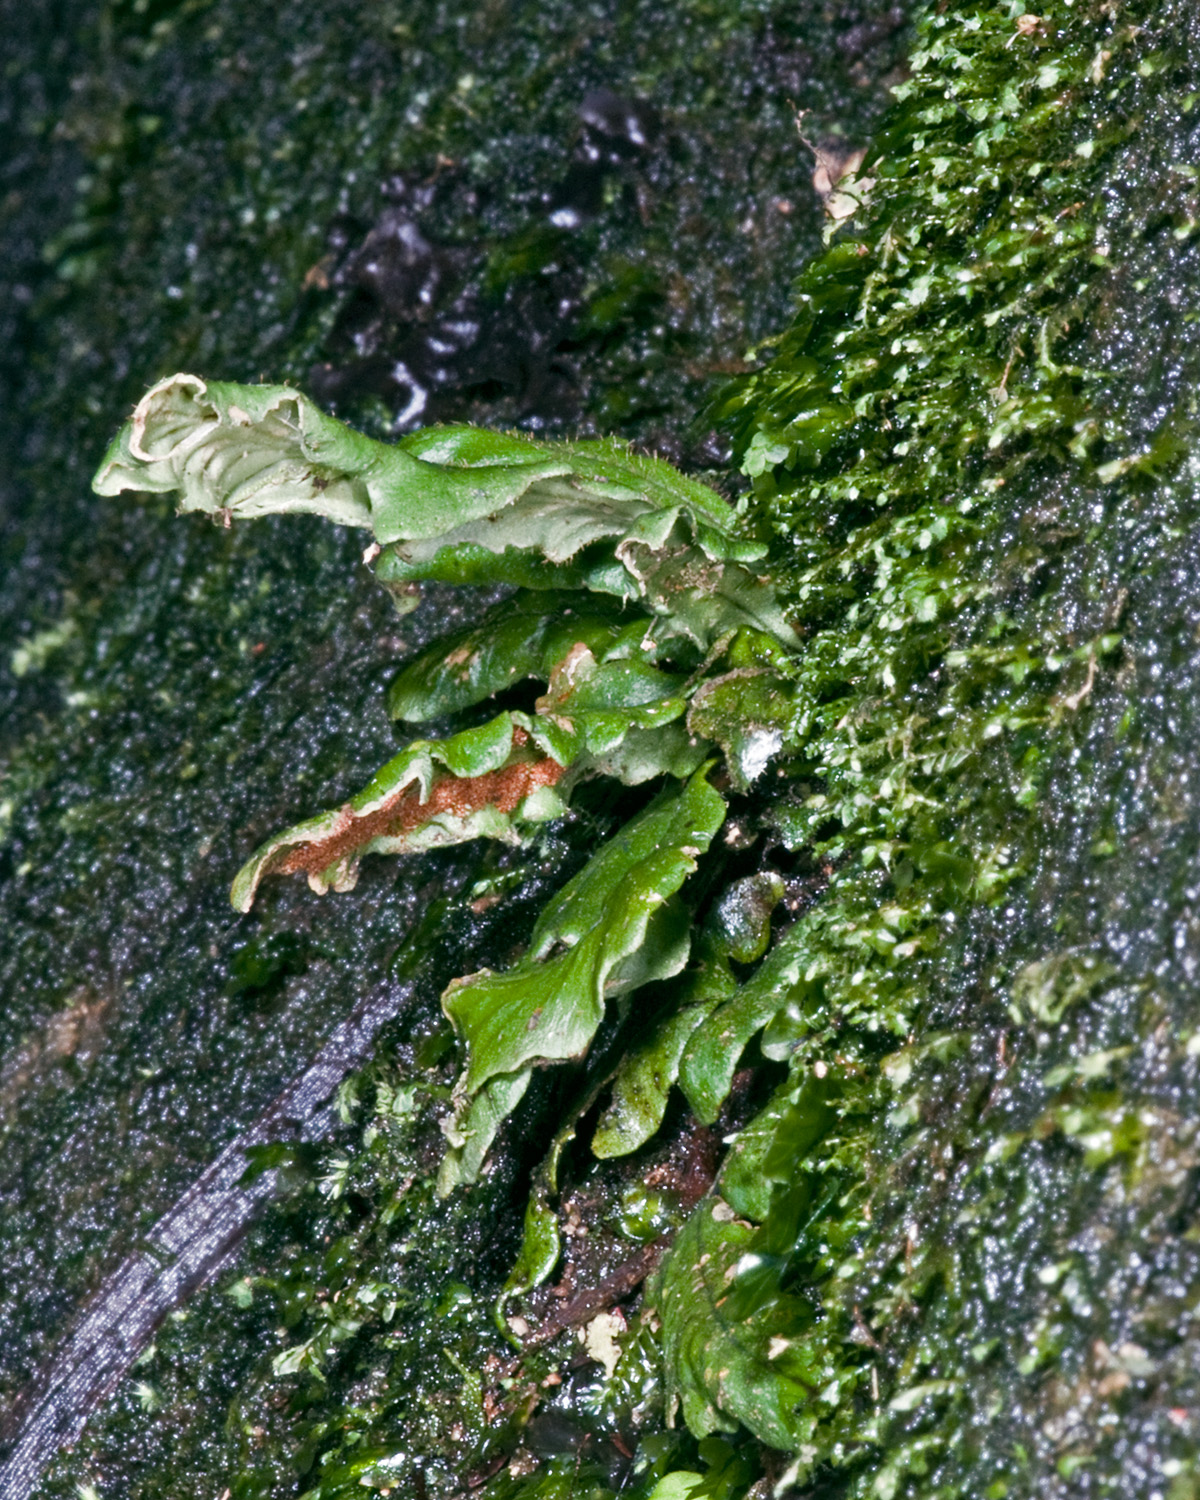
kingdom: Plantae
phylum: Tracheophyta
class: Polypodiopsida
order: Polypodiales
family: Polypodiaceae
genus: Notogrammitis
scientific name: Notogrammitis
